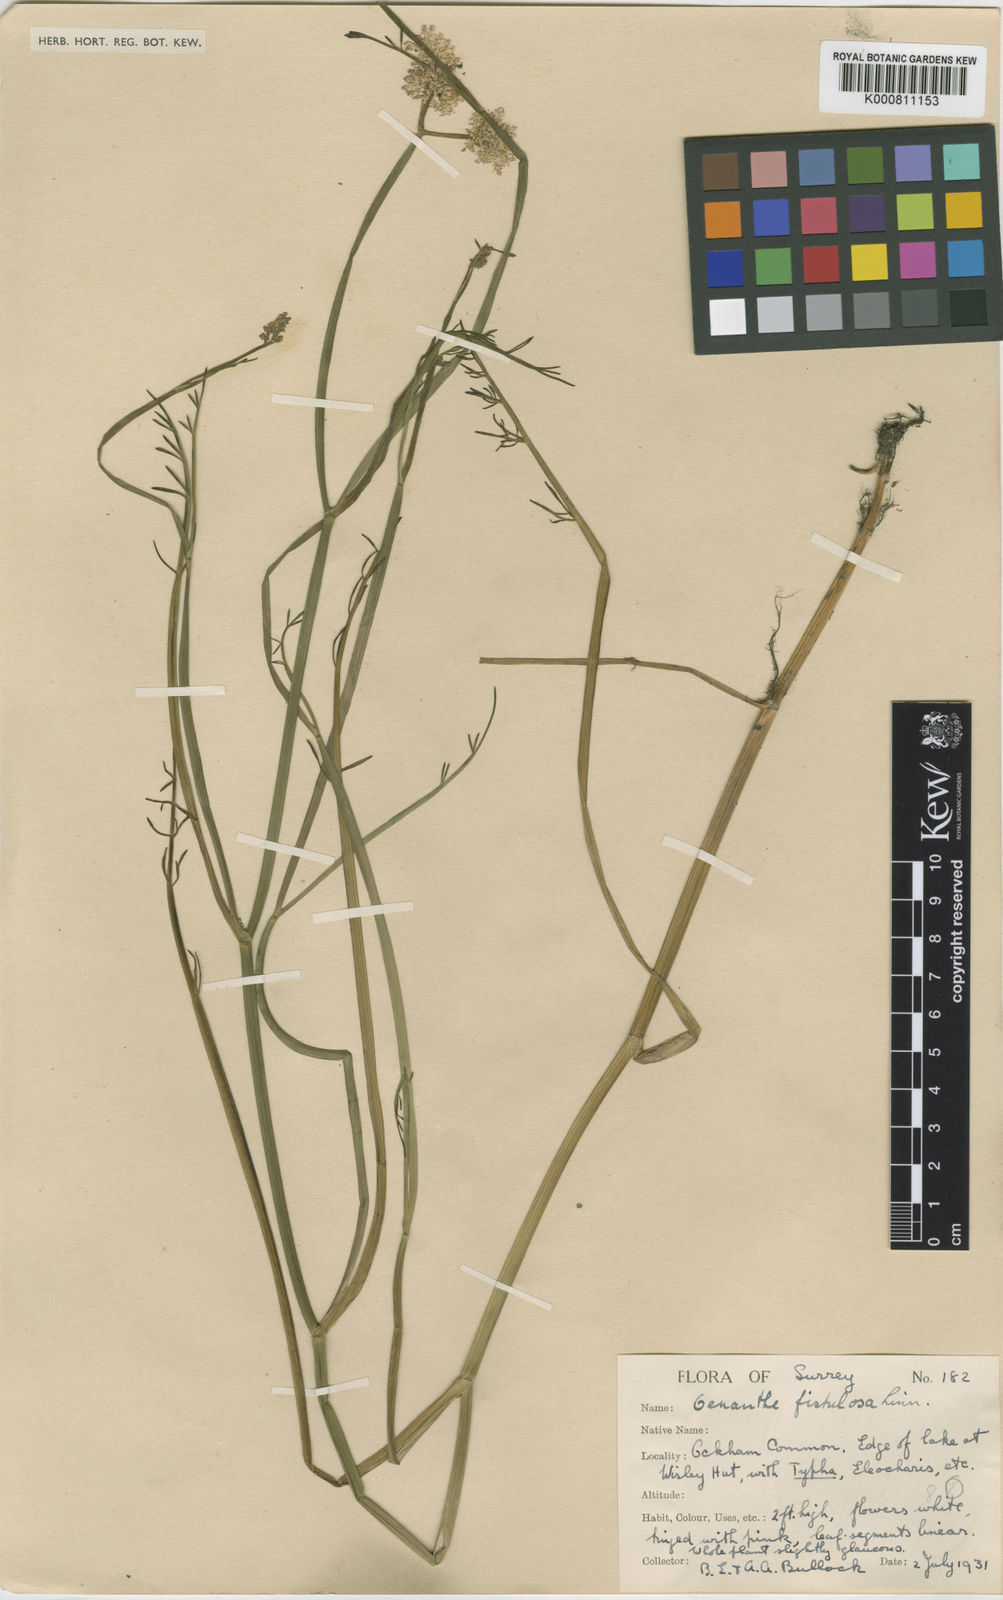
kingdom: Plantae
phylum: Tracheophyta
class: Magnoliopsida
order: Apiales
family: Apiaceae
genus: Oenanthe
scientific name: Oenanthe fistulosa
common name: Tubular water-dropwort
